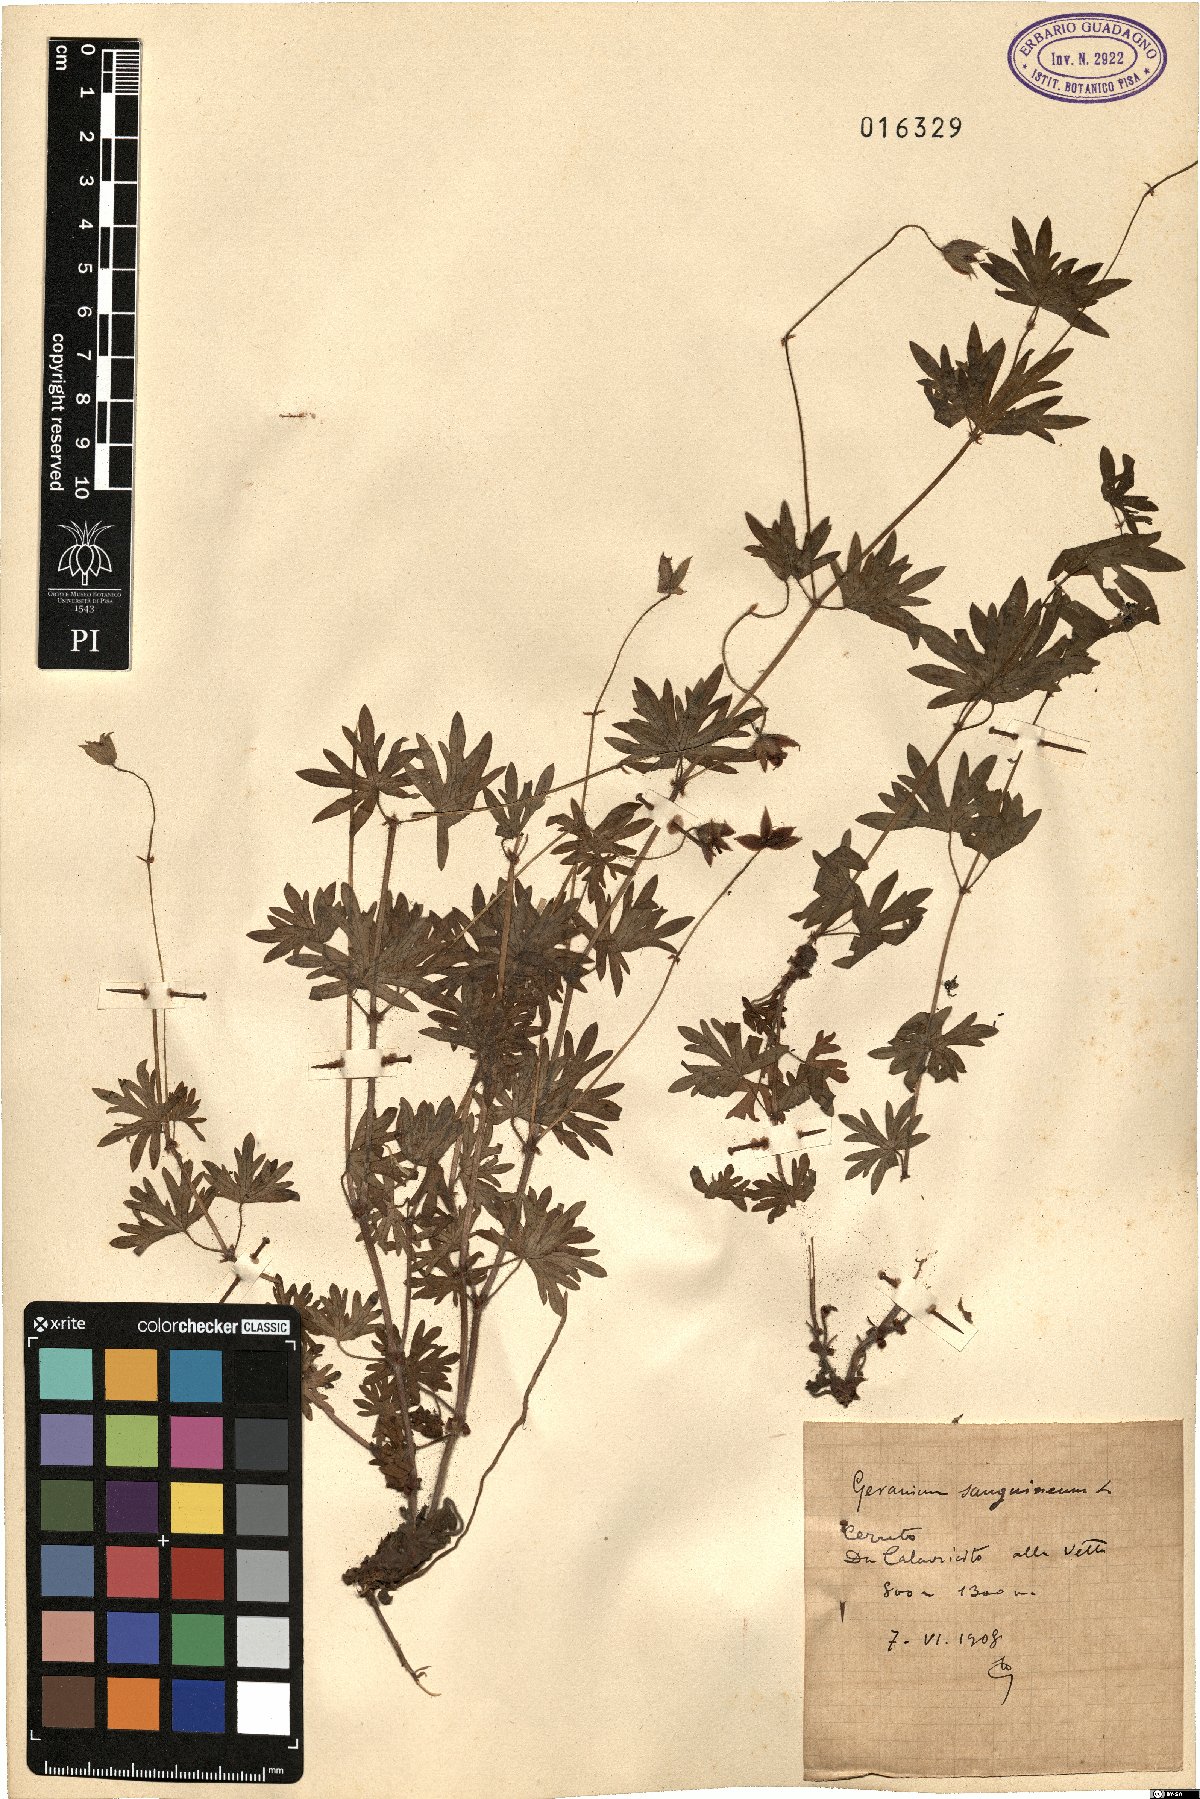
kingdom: Plantae
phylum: Tracheophyta
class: Magnoliopsida
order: Geraniales
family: Geraniaceae
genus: Geranium
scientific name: Geranium sanguineum
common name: Bloody crane's-bill
